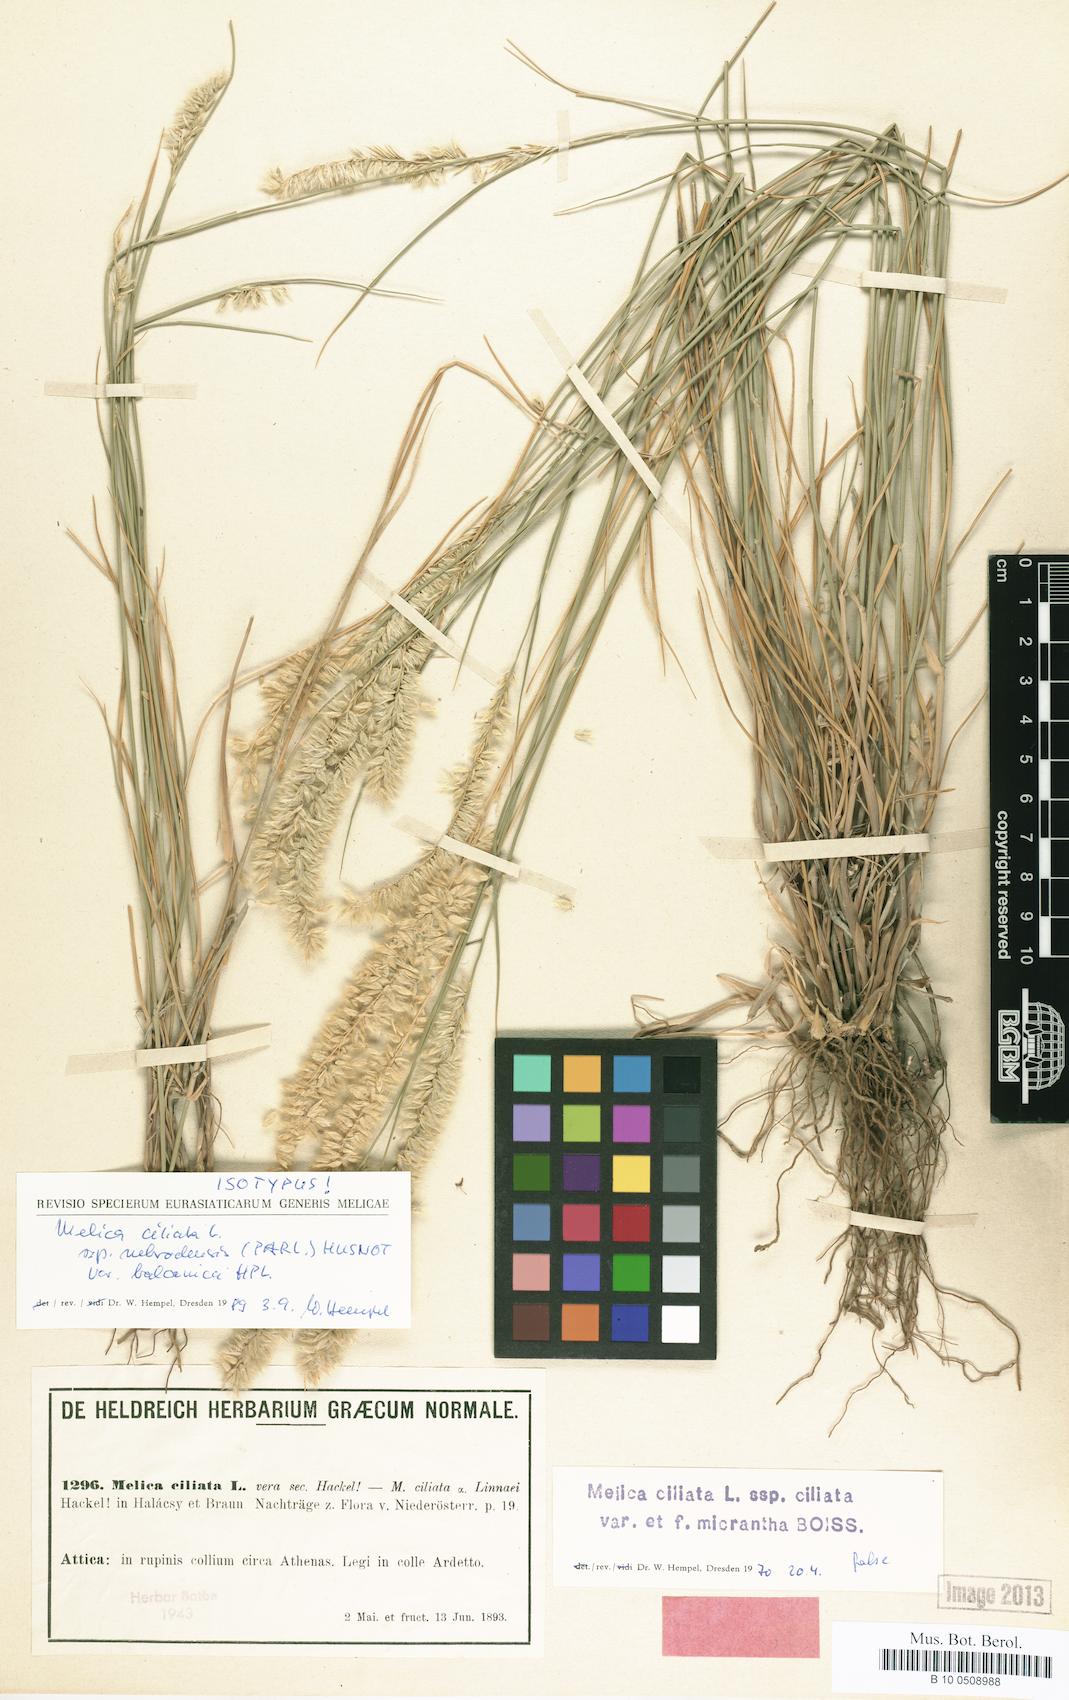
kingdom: Plantae
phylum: Tracheophyta
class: Liliopsida
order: Poales
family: Poaceae
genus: Melica
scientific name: Melica ciliata
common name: Hairy melicgrass
